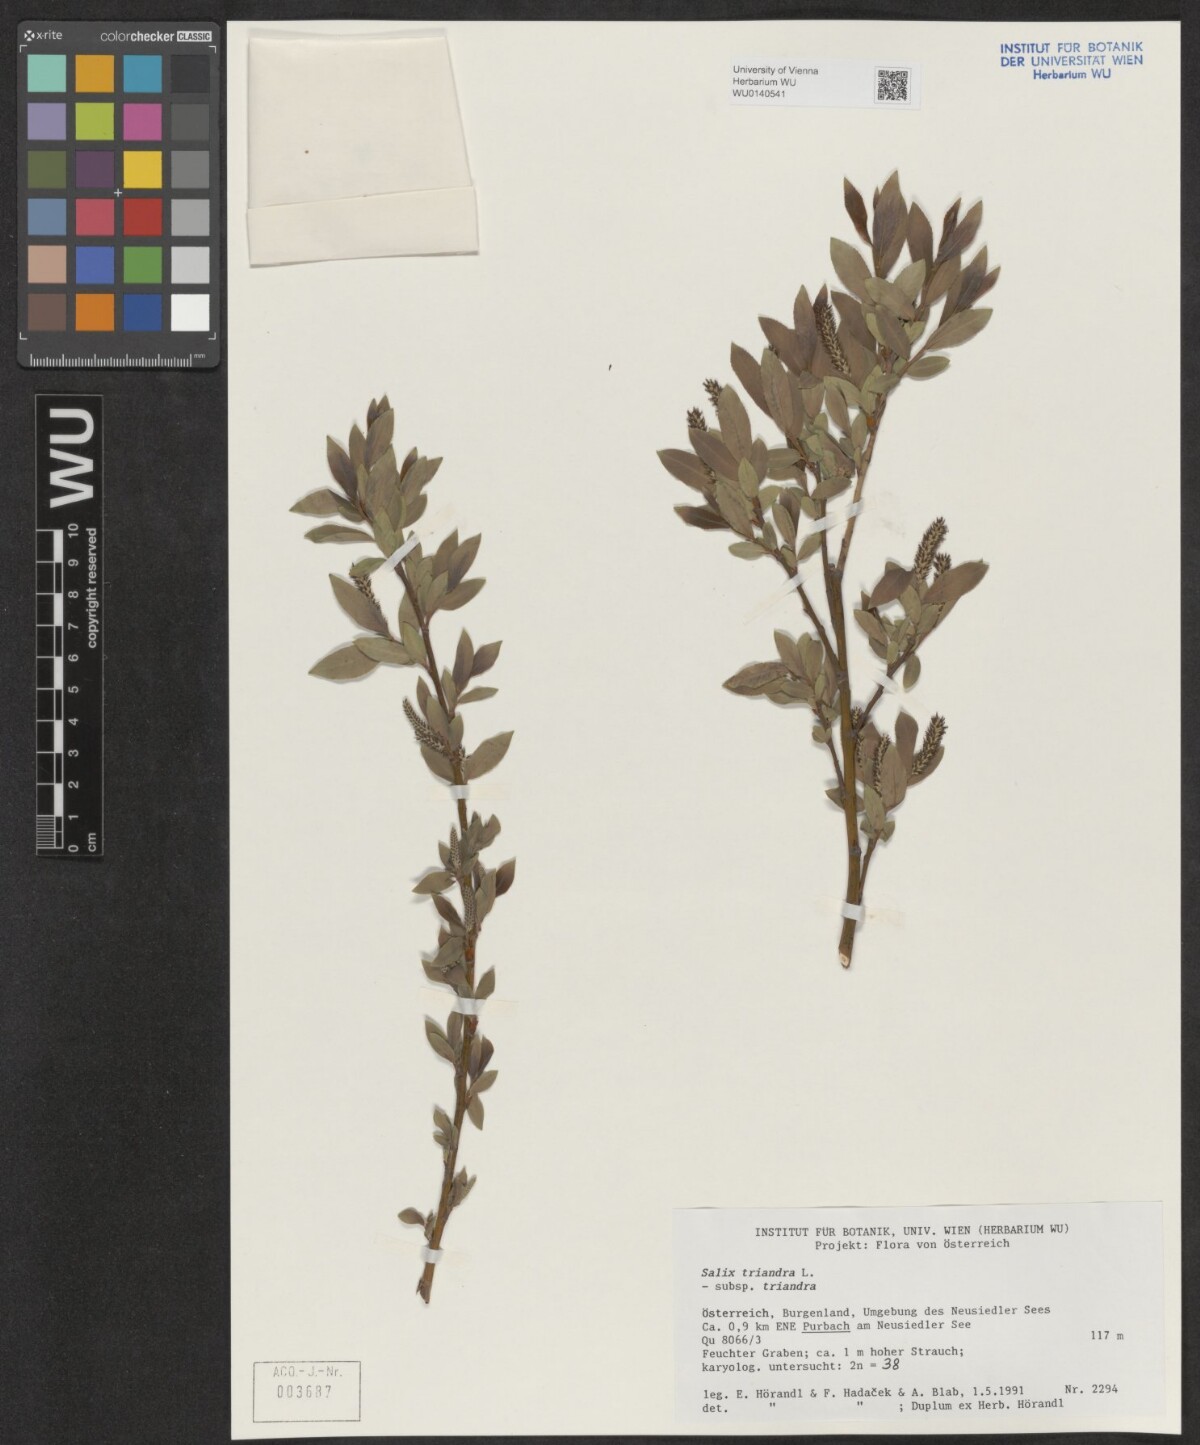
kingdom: Plantae
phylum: Tracheophyta
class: Magnoliopsida
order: Malpighiales
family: Salicaceae
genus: Salix
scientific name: Salix triandra
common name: Almond willow
